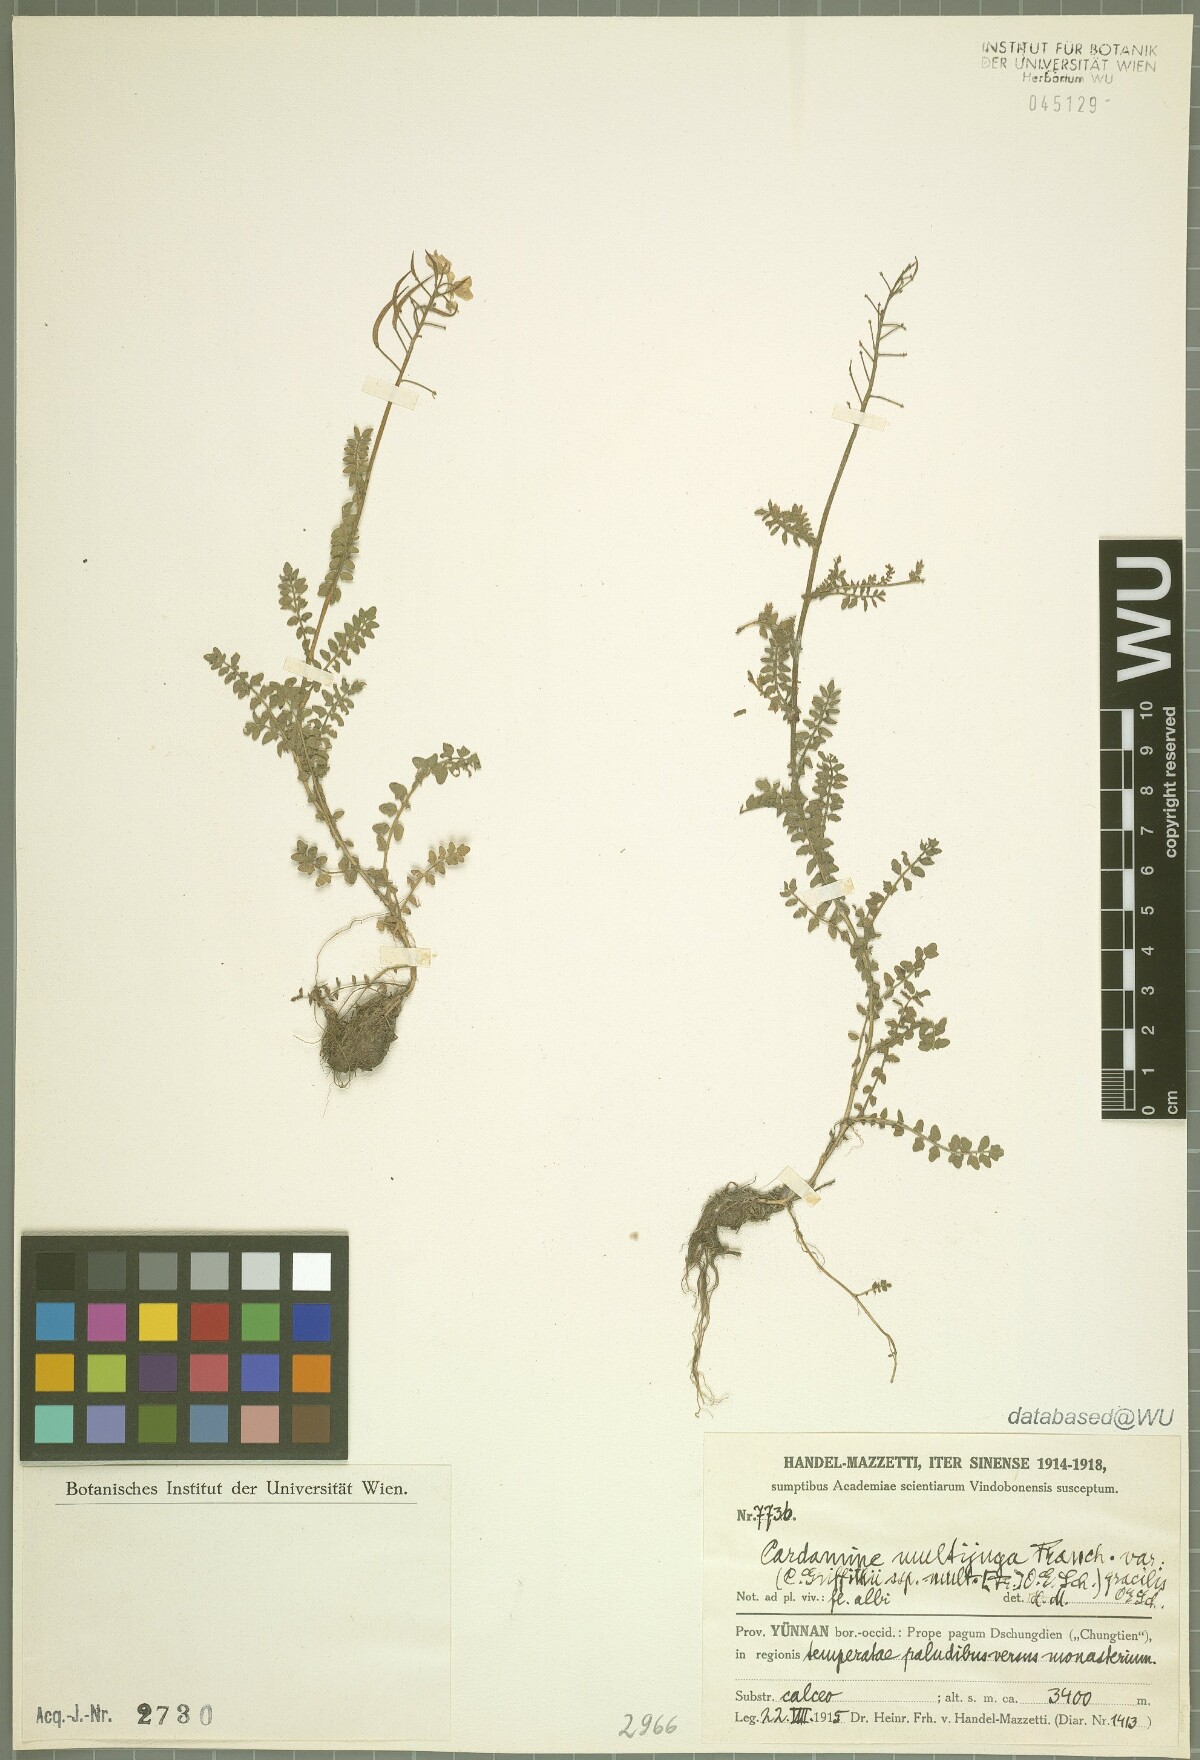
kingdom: Plantae
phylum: Tracheophyta
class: Magnoliopsida
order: Brassicales
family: Brassicaceae
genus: Cardamine
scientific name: Cardamine multijuga
